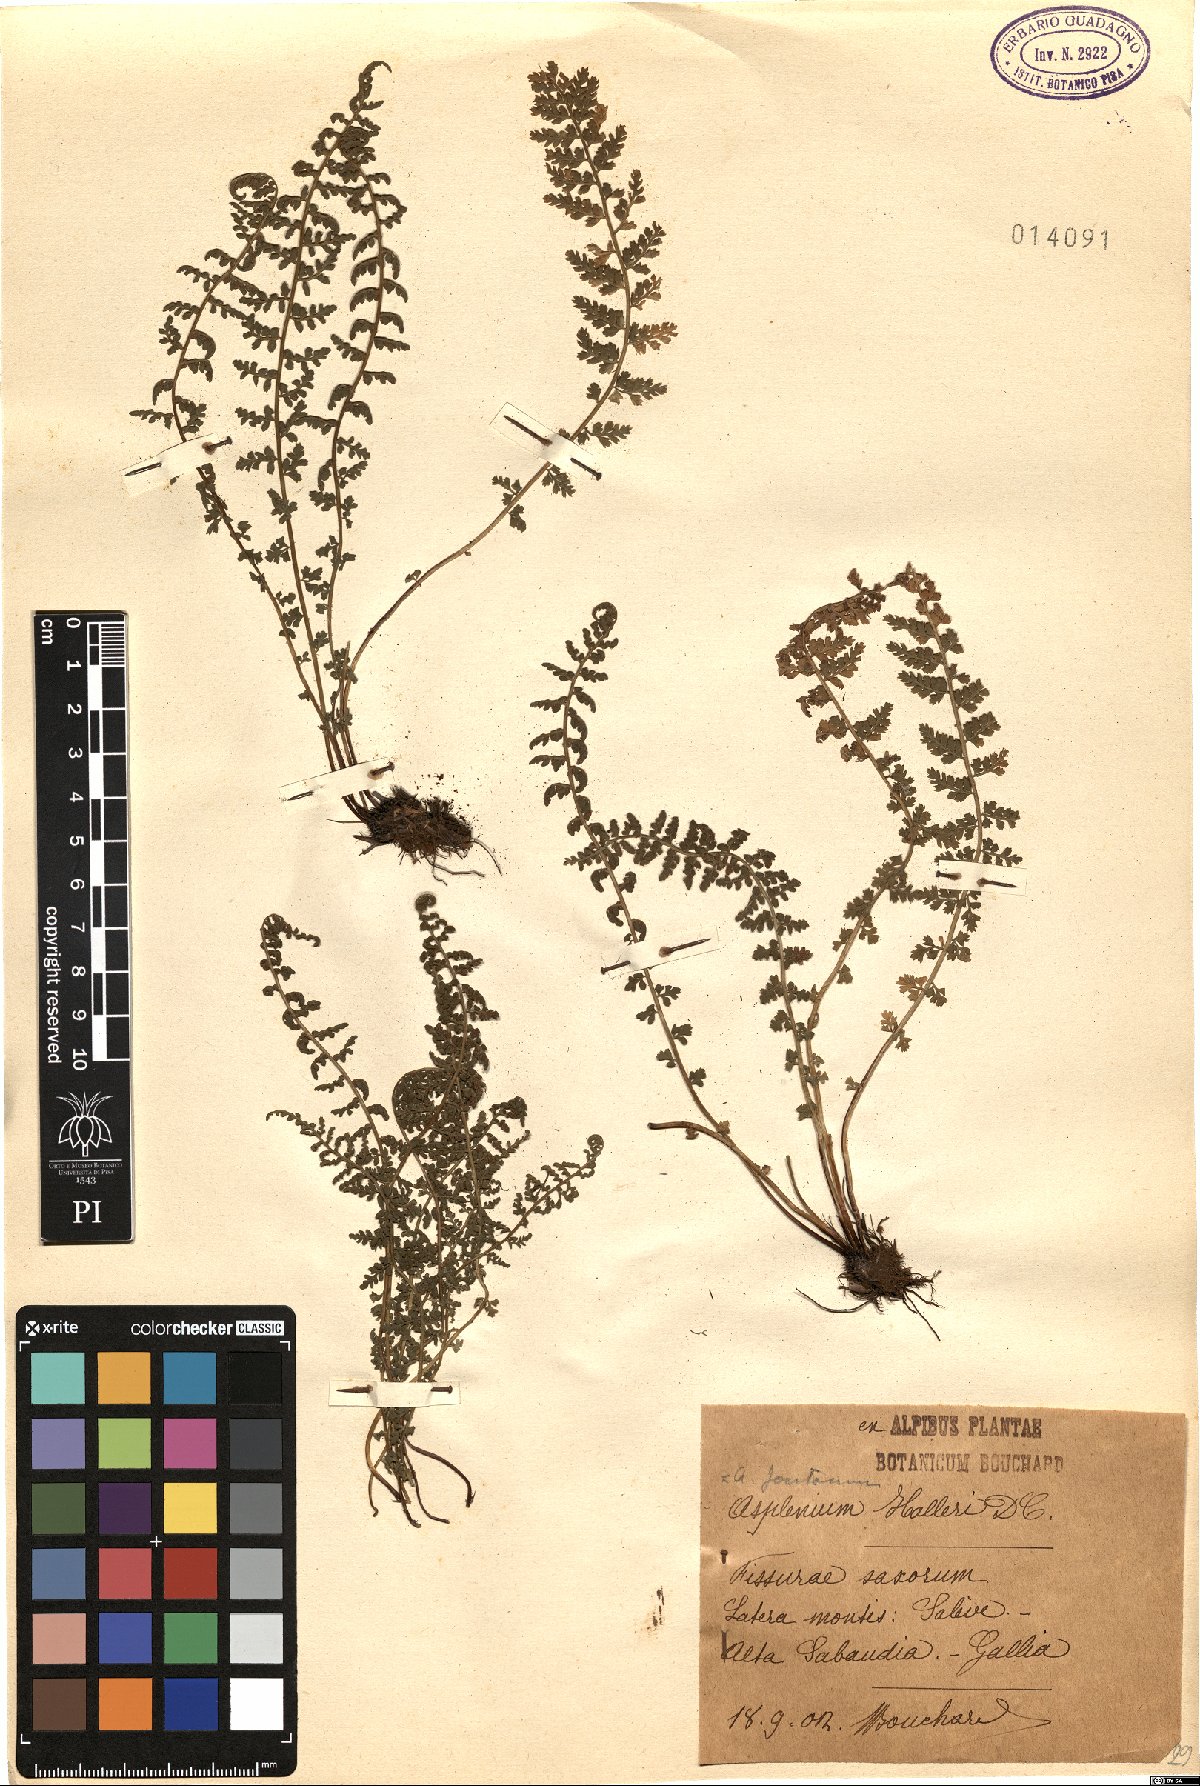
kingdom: Plantae
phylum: Tracheophyta
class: Polypodiopsida
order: Polypodiales
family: Aspleniaceae
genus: Asplenium
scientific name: Asplenium fontanum
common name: Fountain spleenwort
